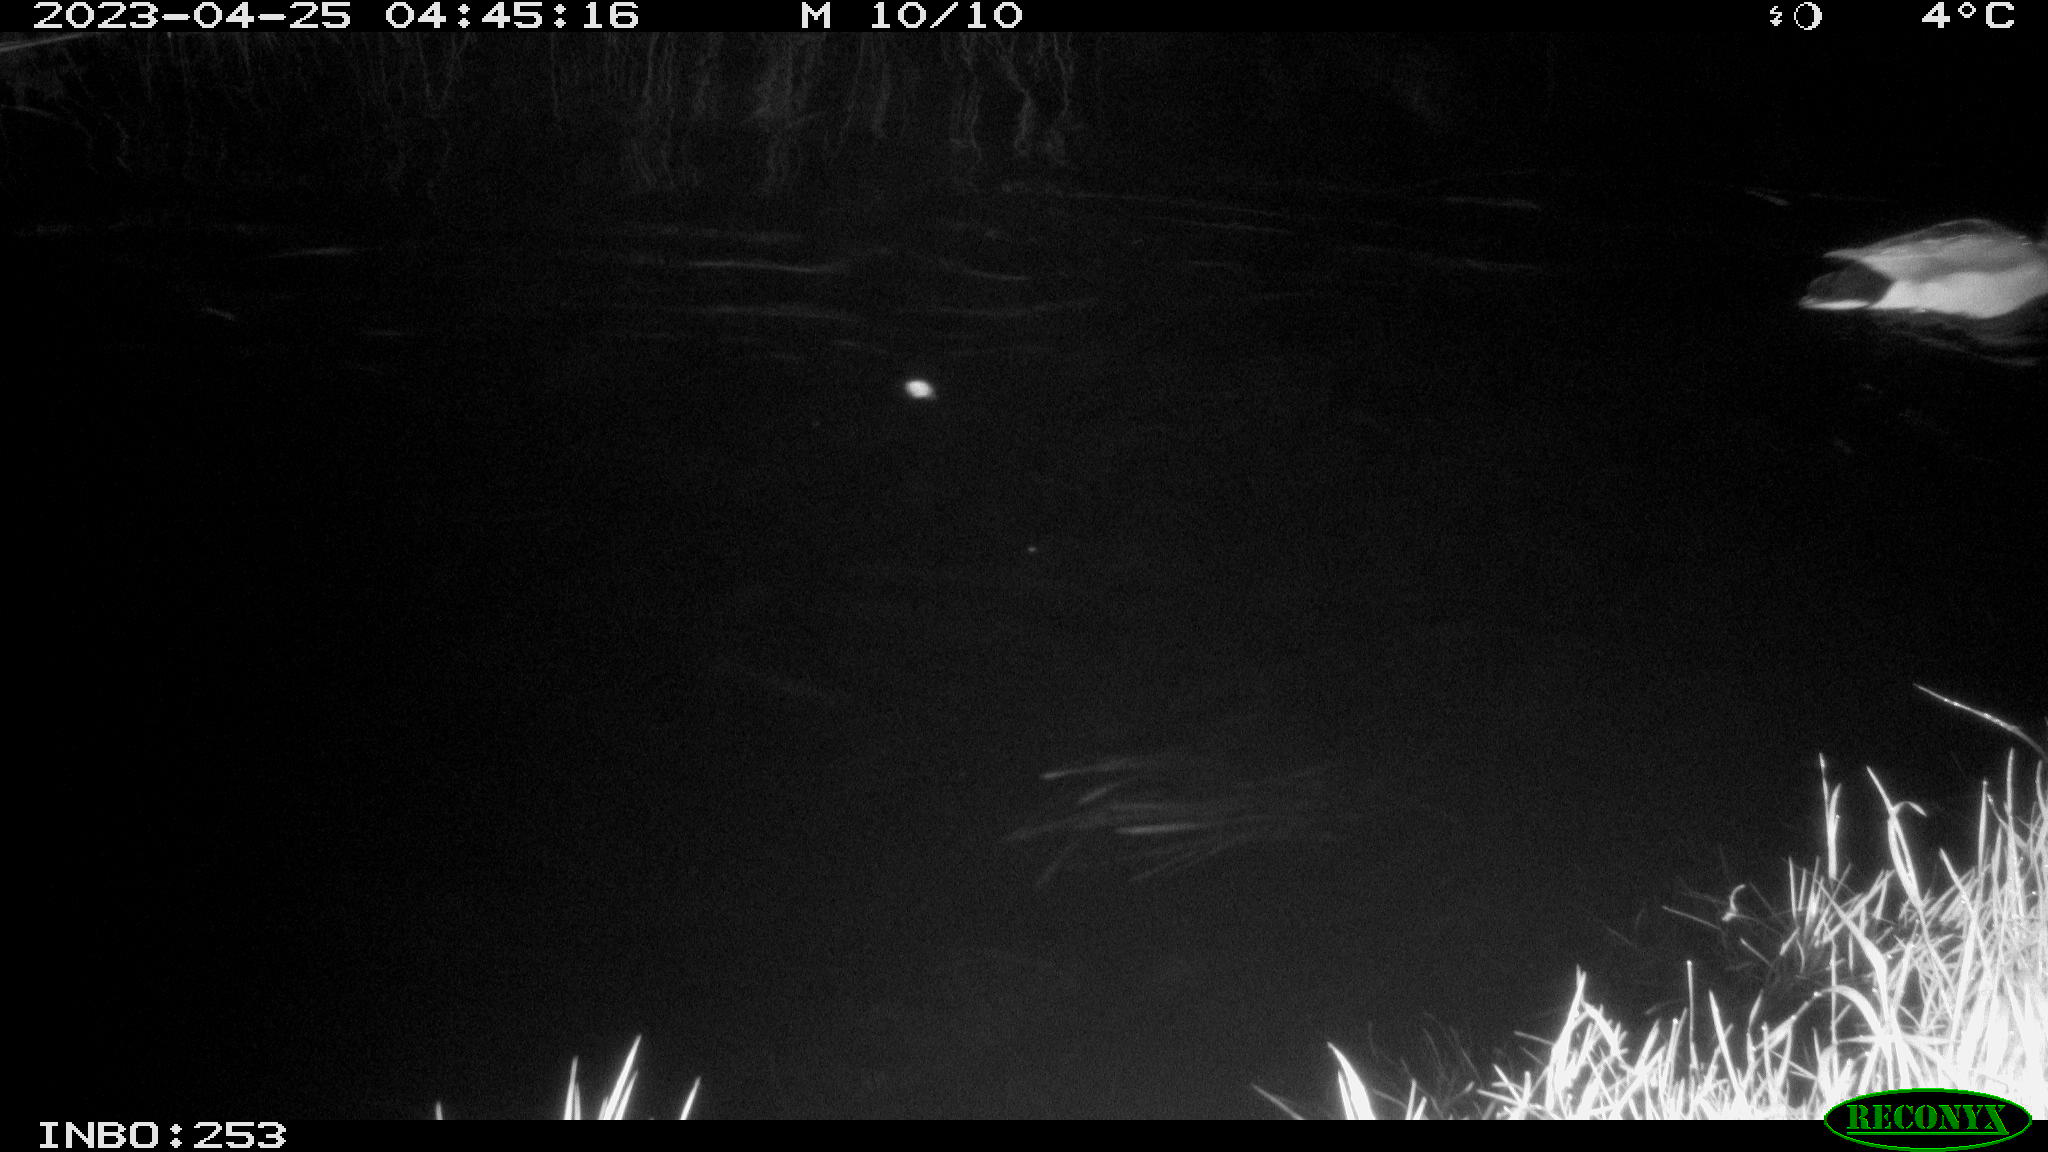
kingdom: Animalia
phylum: Chordata
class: Aves
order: Anseriformes
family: Anatidae
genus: Anas
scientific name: Anas
